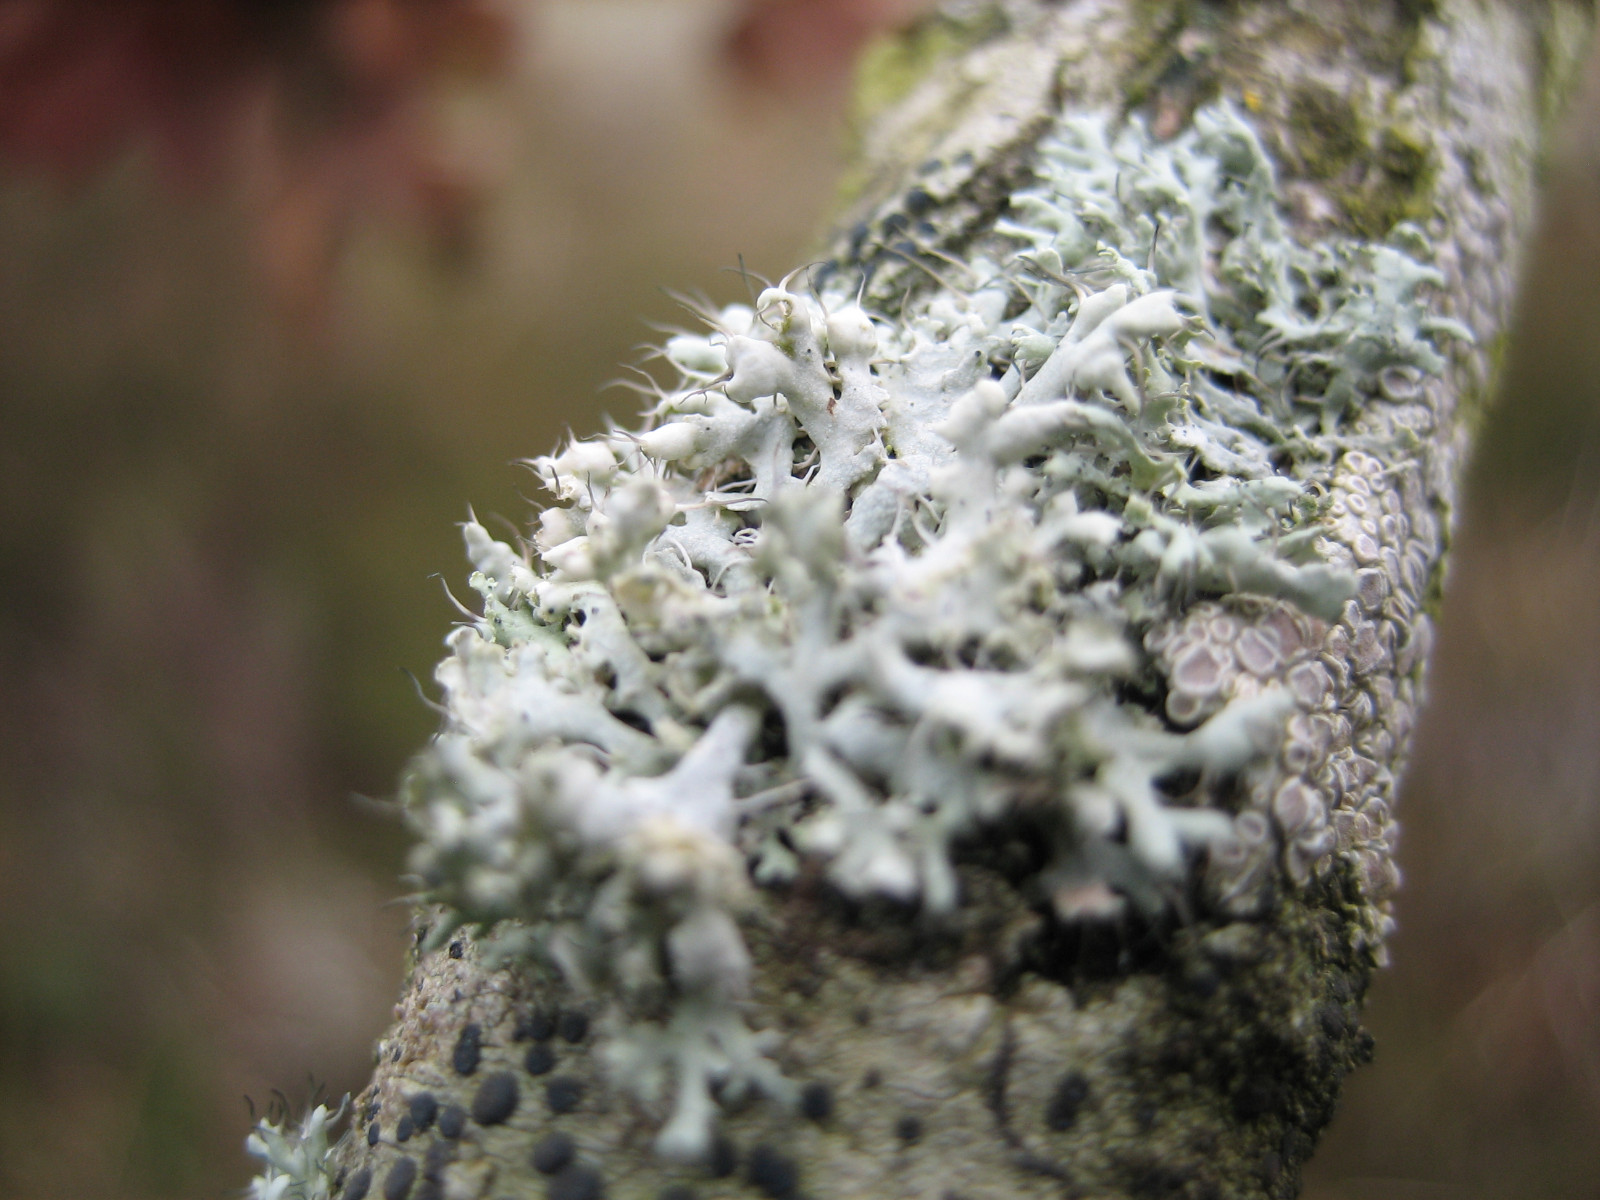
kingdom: Fungi
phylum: Ascomycota
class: Lecanoromycetes
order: Caliciales
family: Physciaceae
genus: Physcia
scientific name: Physcia adscendens
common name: hætte-rosetlav
